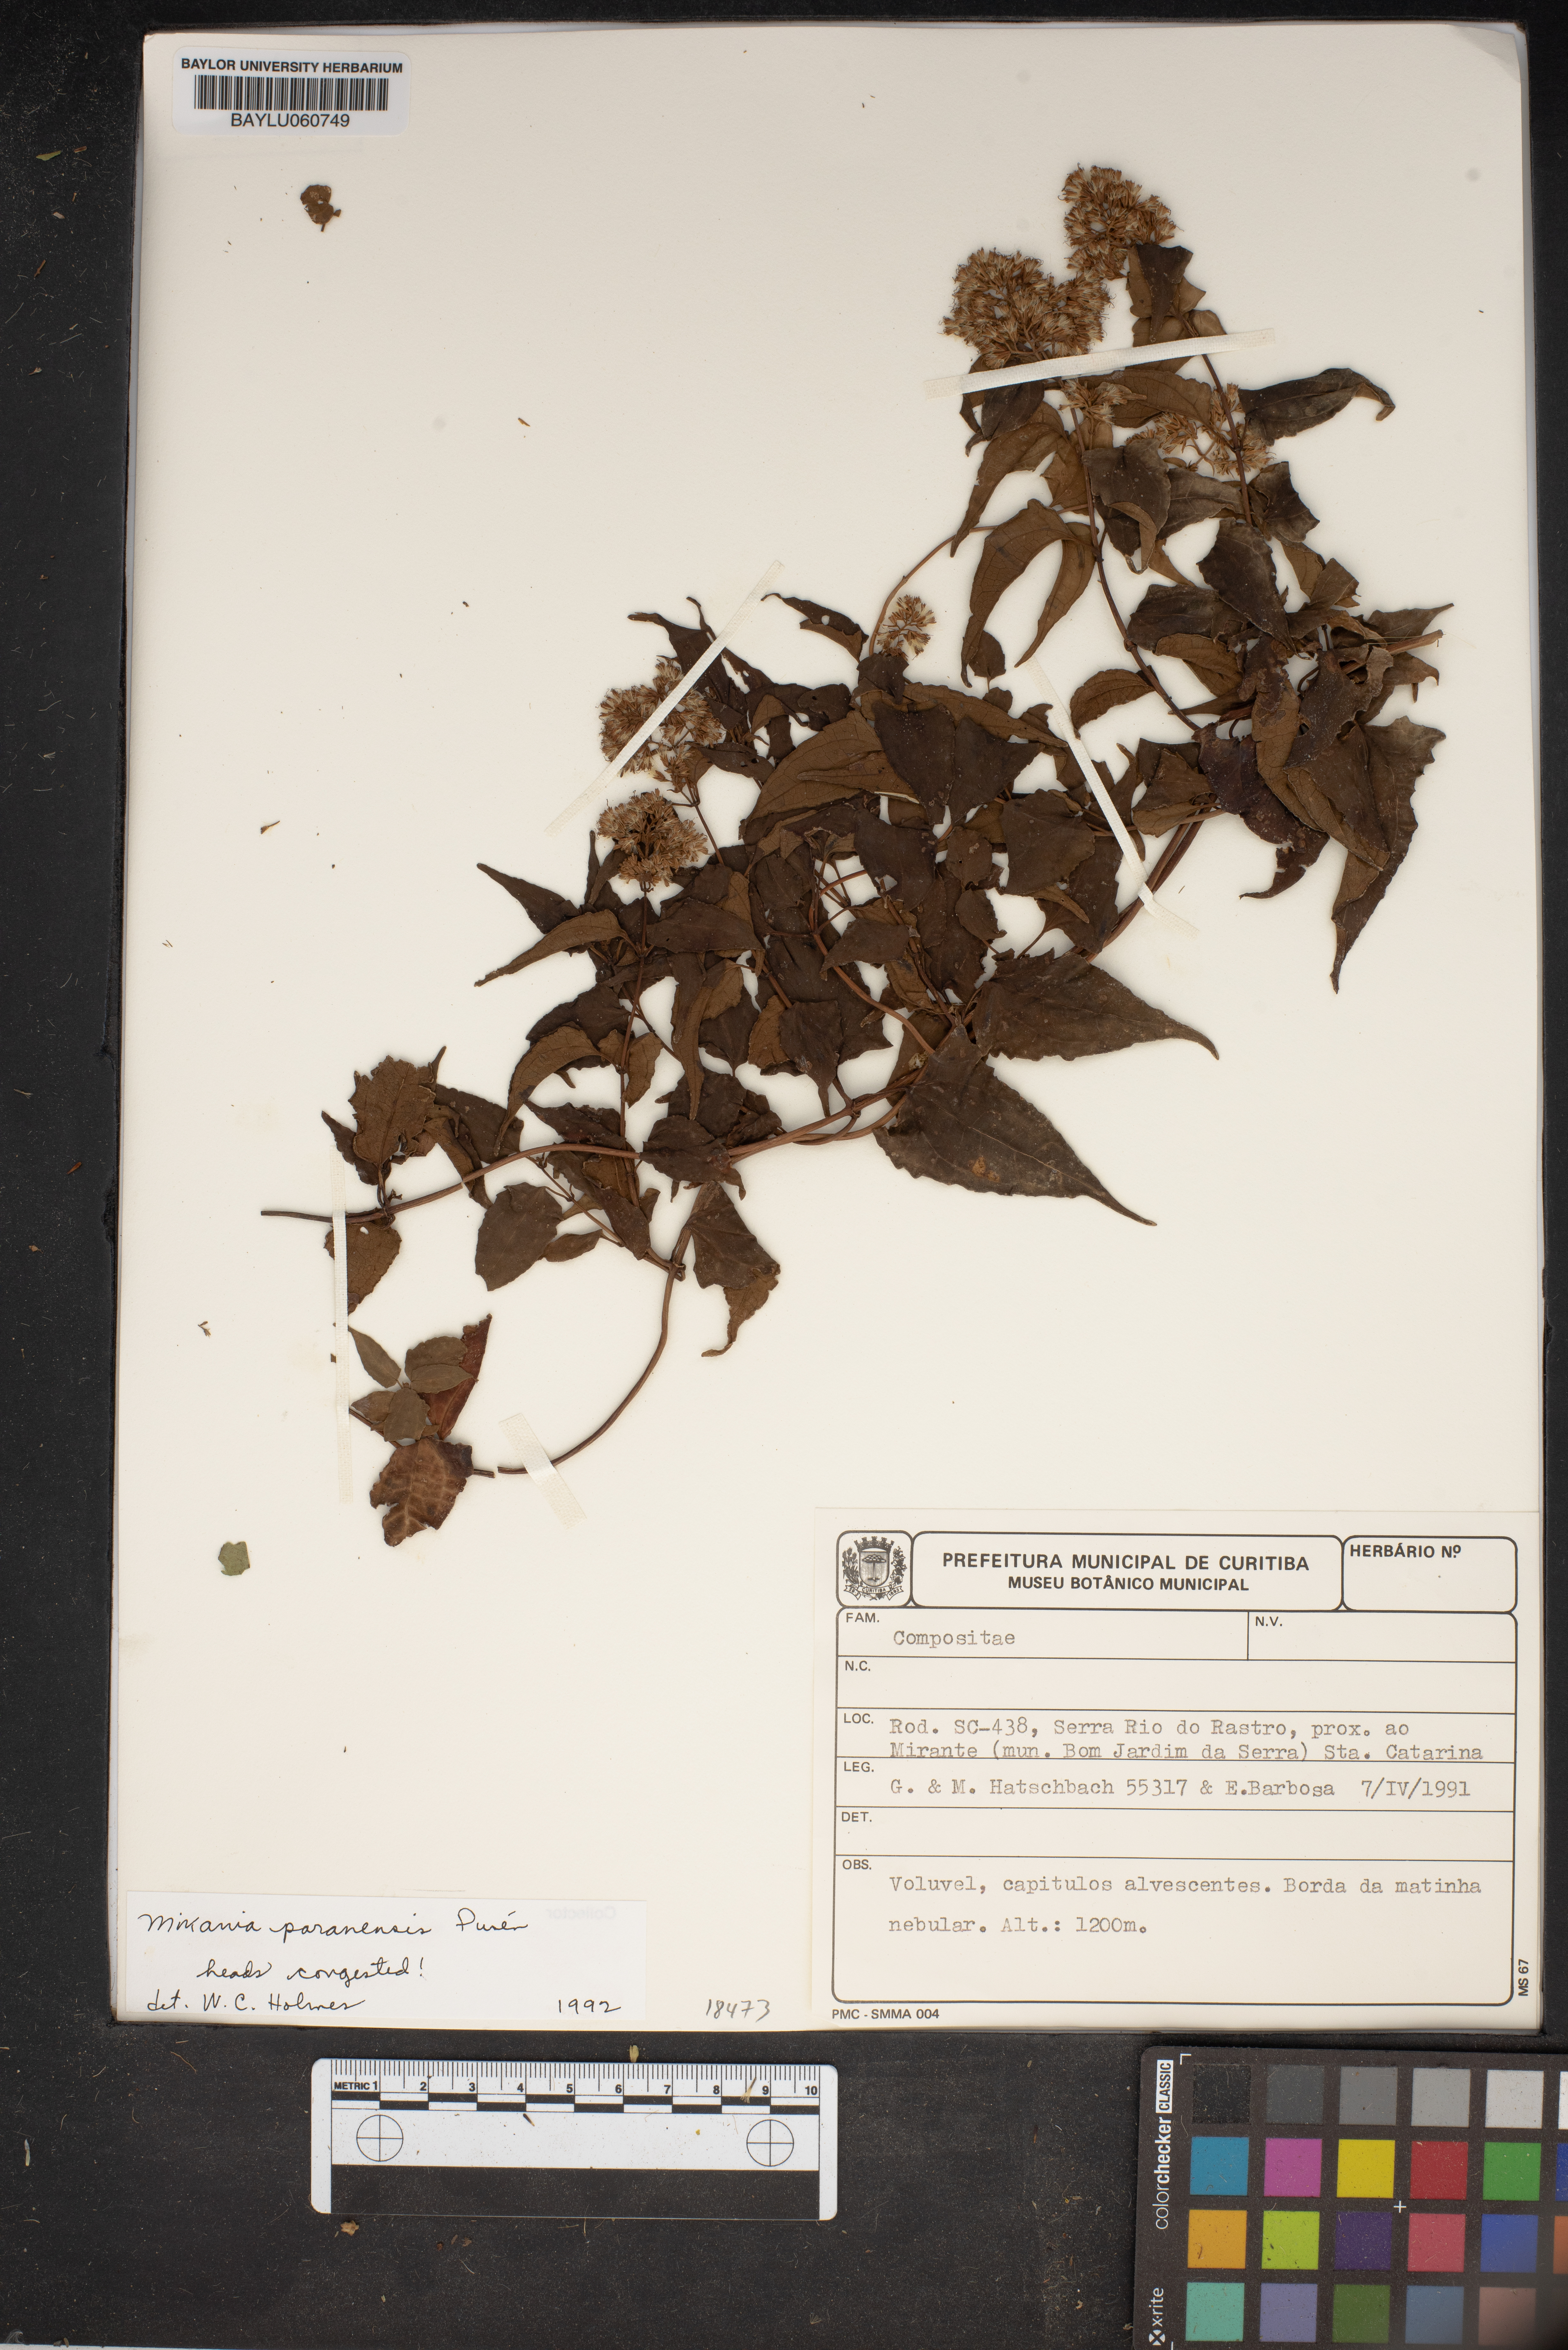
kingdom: Plantae
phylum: Tracheophyta
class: Magnoliopsida
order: Asterales
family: Asteraceae
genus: Mikania
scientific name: Mikania paranensis
